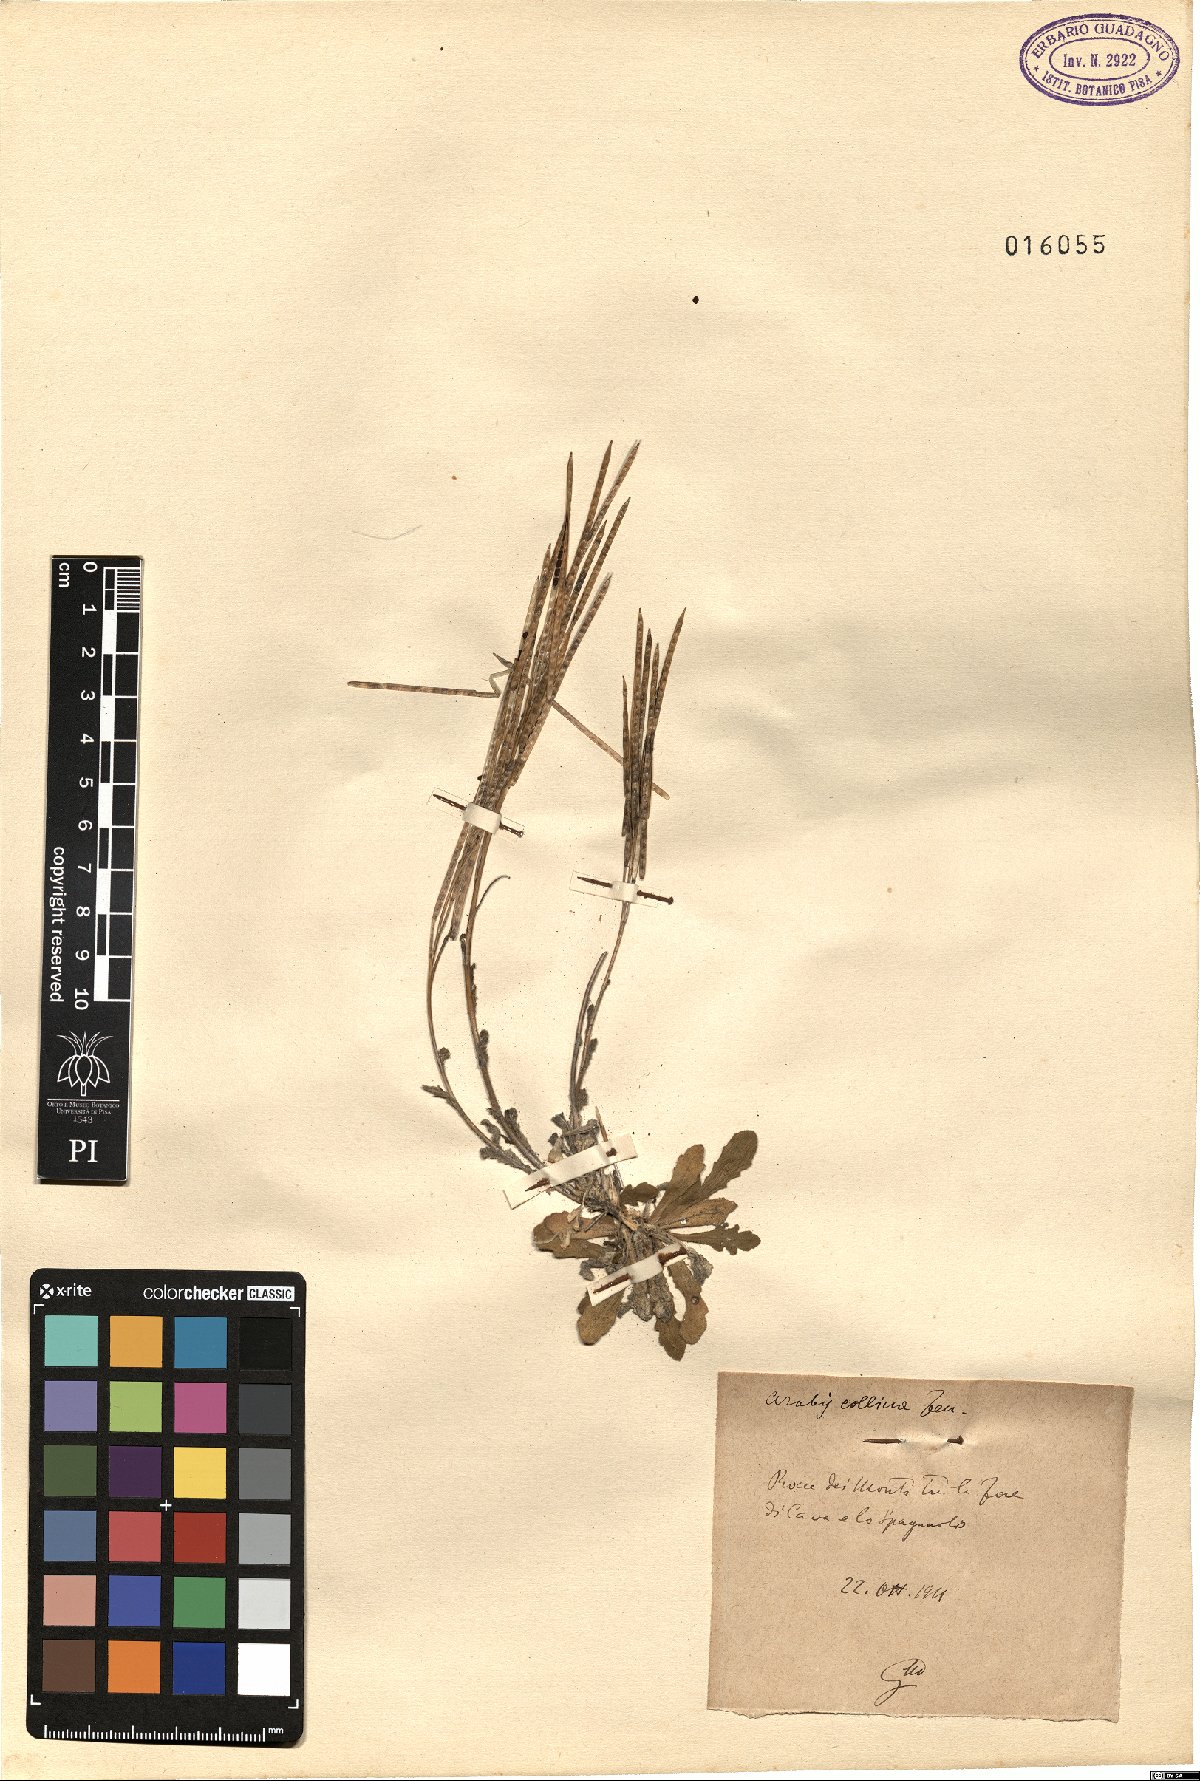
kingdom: Plantae
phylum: Tracheophyta
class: Magnoliopsida
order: Brassicales
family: Brassicaceae
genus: Arabis
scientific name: Arabis collina
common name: Rosy cress
